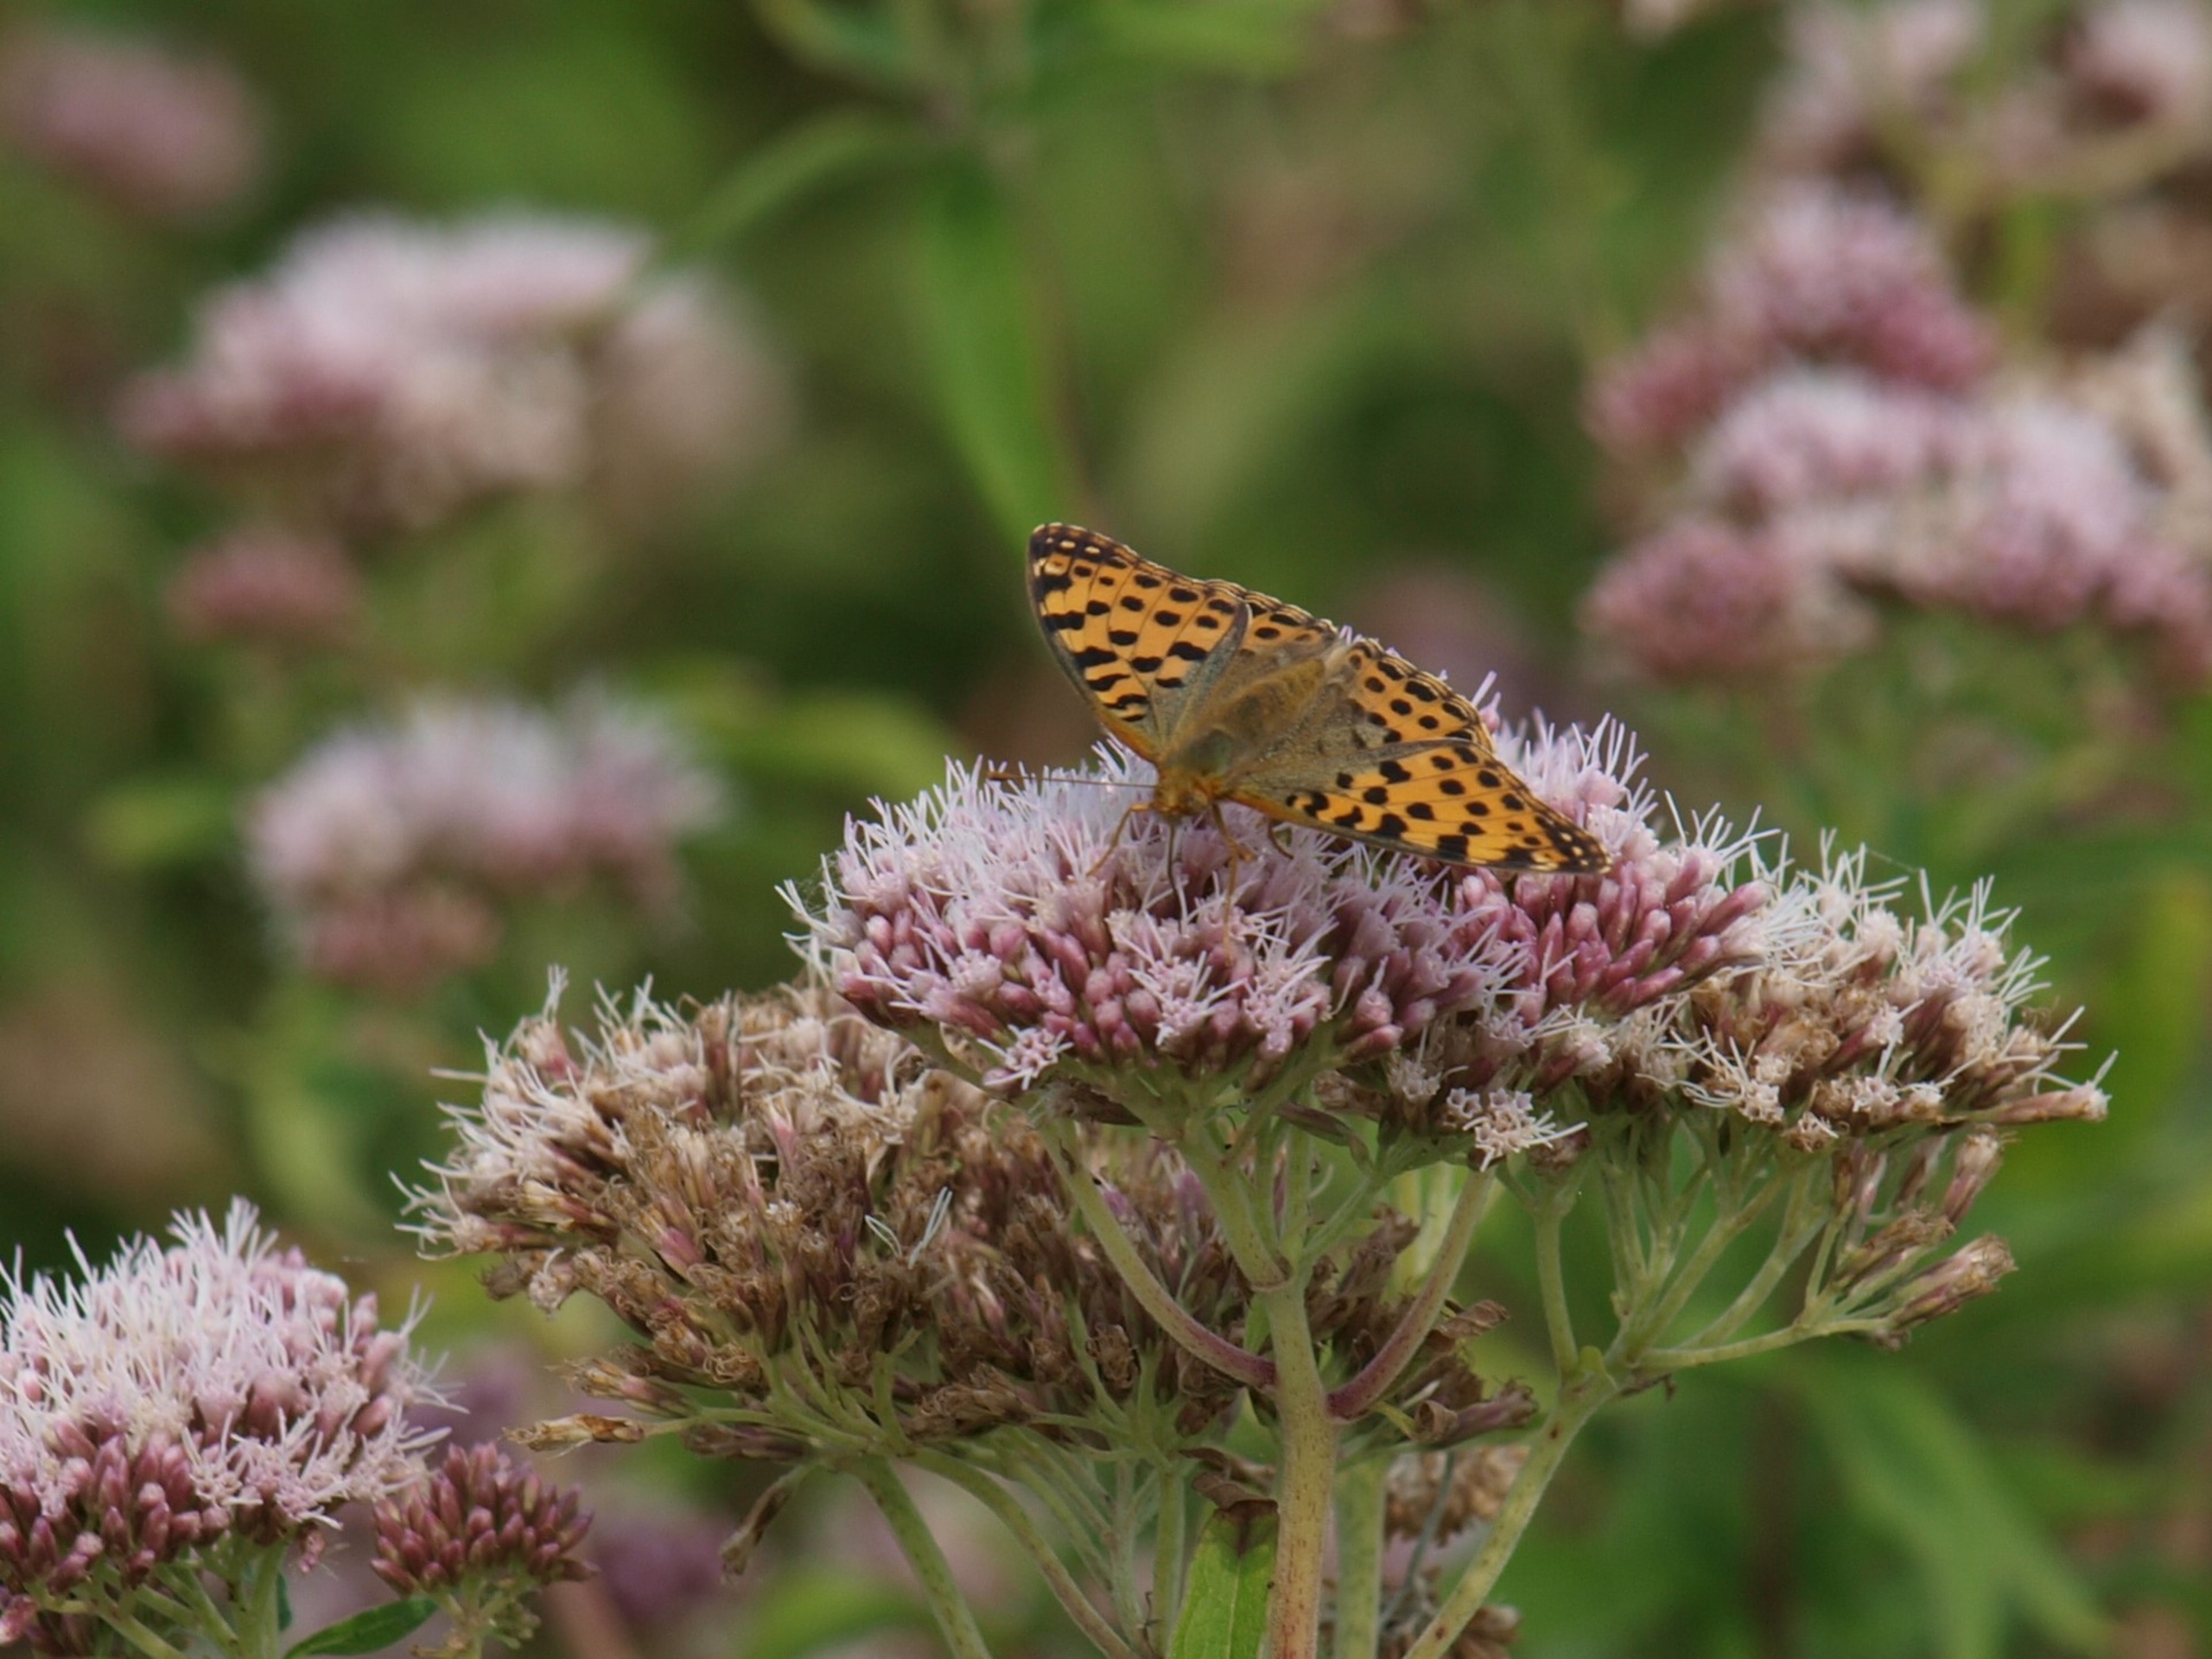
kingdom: Animalia
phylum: Arthropoda
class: Insecta
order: Lepidoptera
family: Nymphalidae
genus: Issoria
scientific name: Issoria lathonia
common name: Storplettet perlemorsommerfugl
